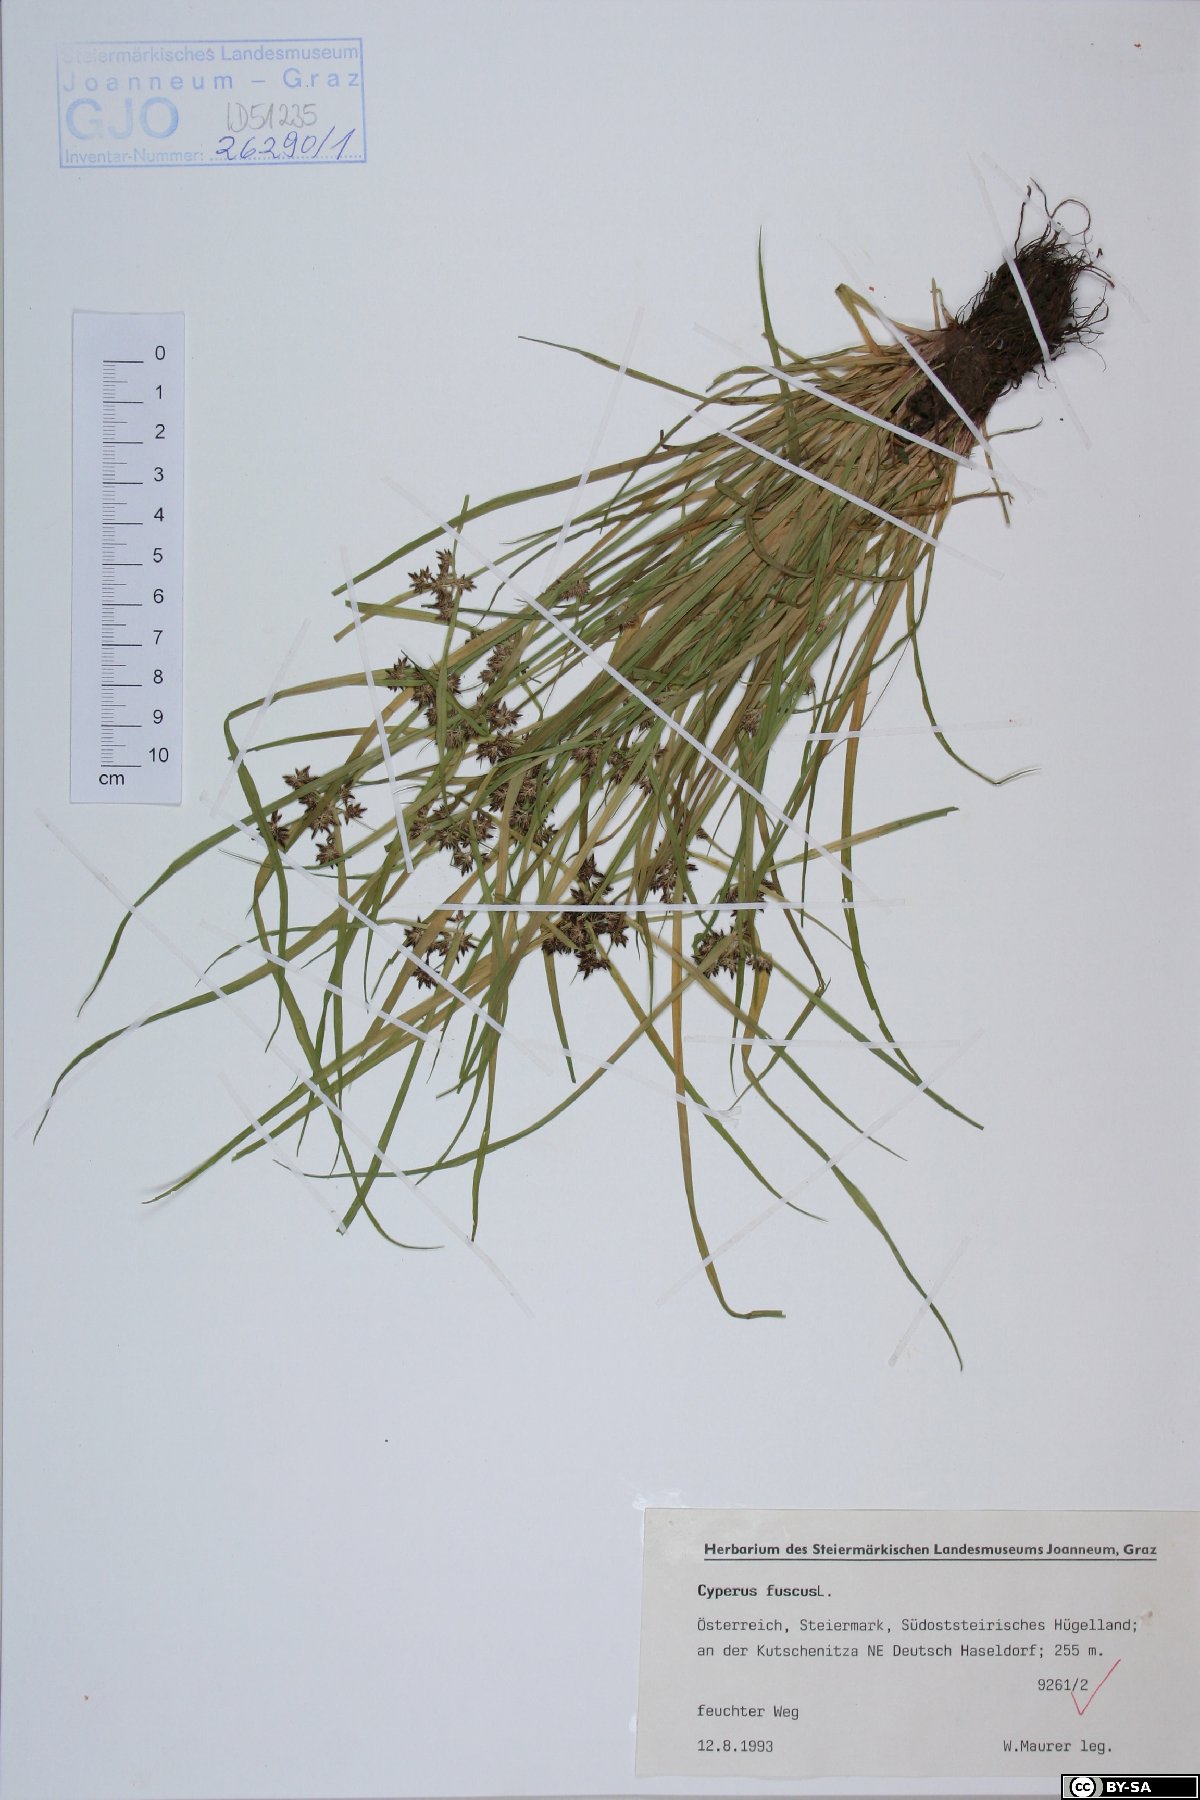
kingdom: Plantae
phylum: Tracheophyta
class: Liliopsida
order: Poales
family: Cyperaceae
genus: Cyperus
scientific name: Cyperus fuscus
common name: Brown galingale
